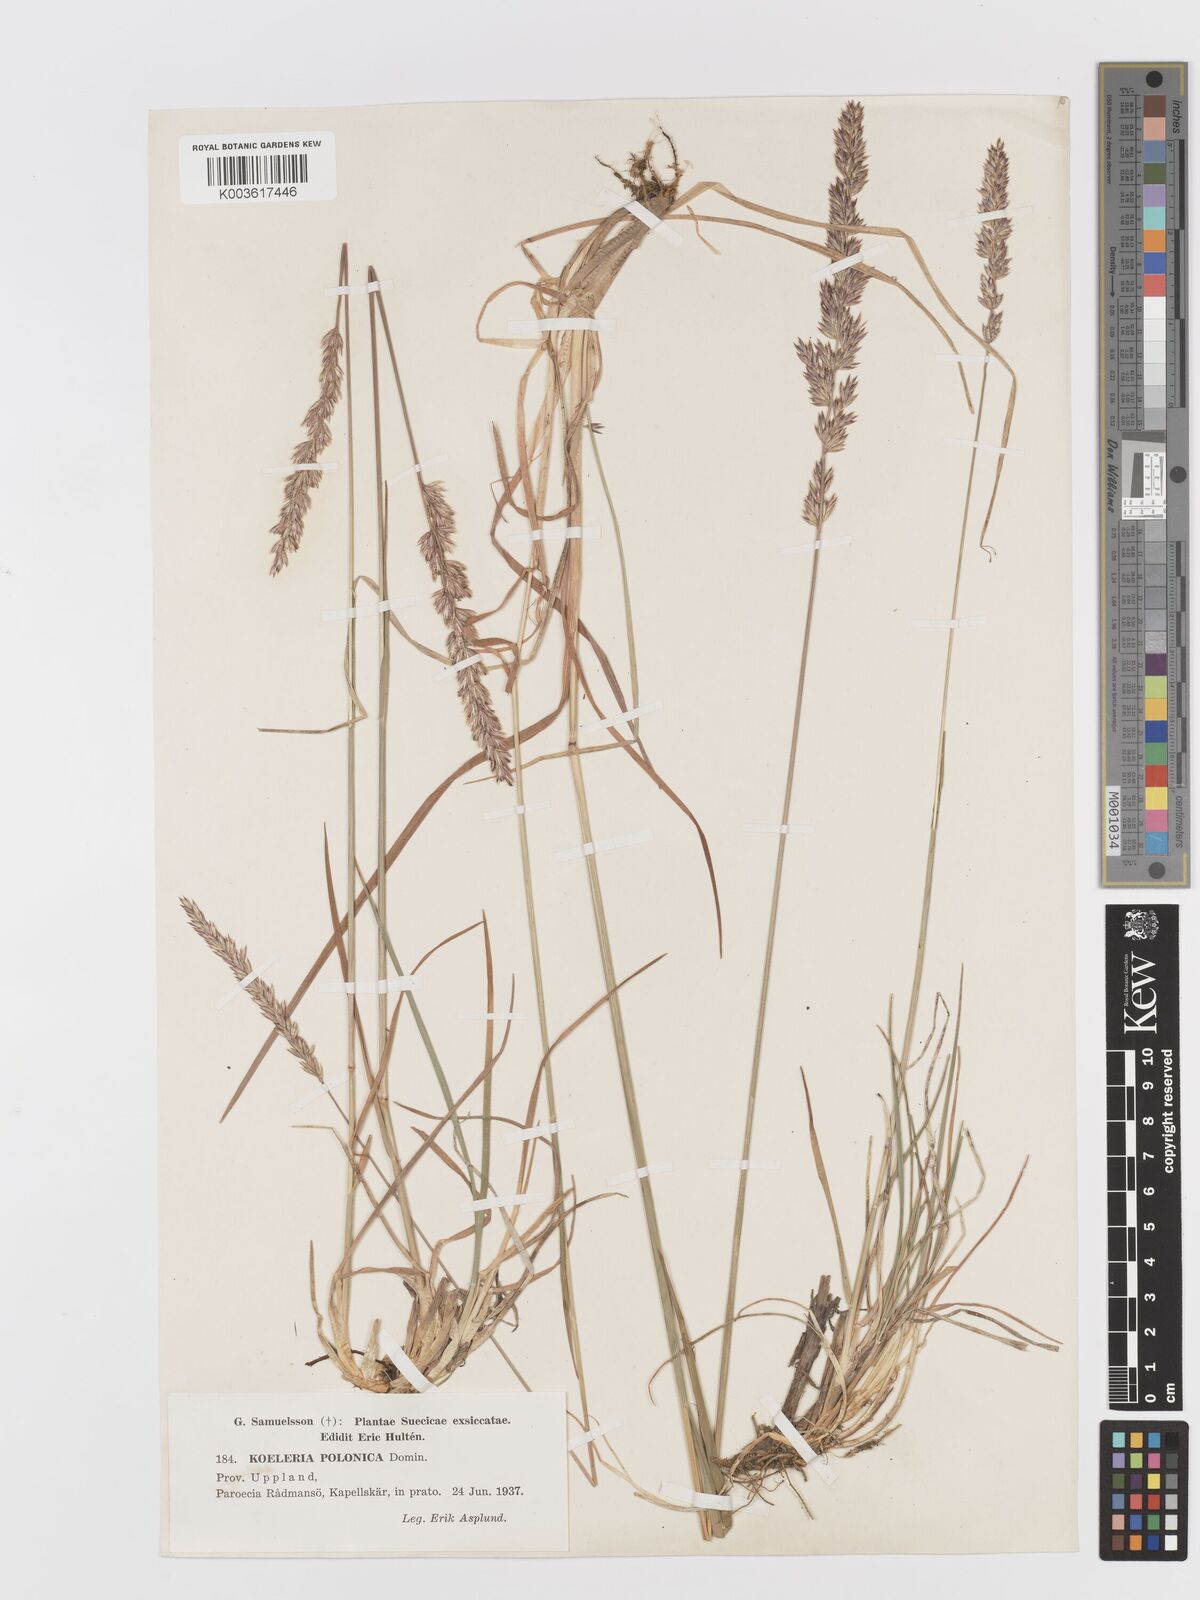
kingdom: Plantae
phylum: Tracheophyta
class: Liliopsida
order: Poales
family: Poaceae
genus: Koeleria
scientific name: Koeleria pyramidata
